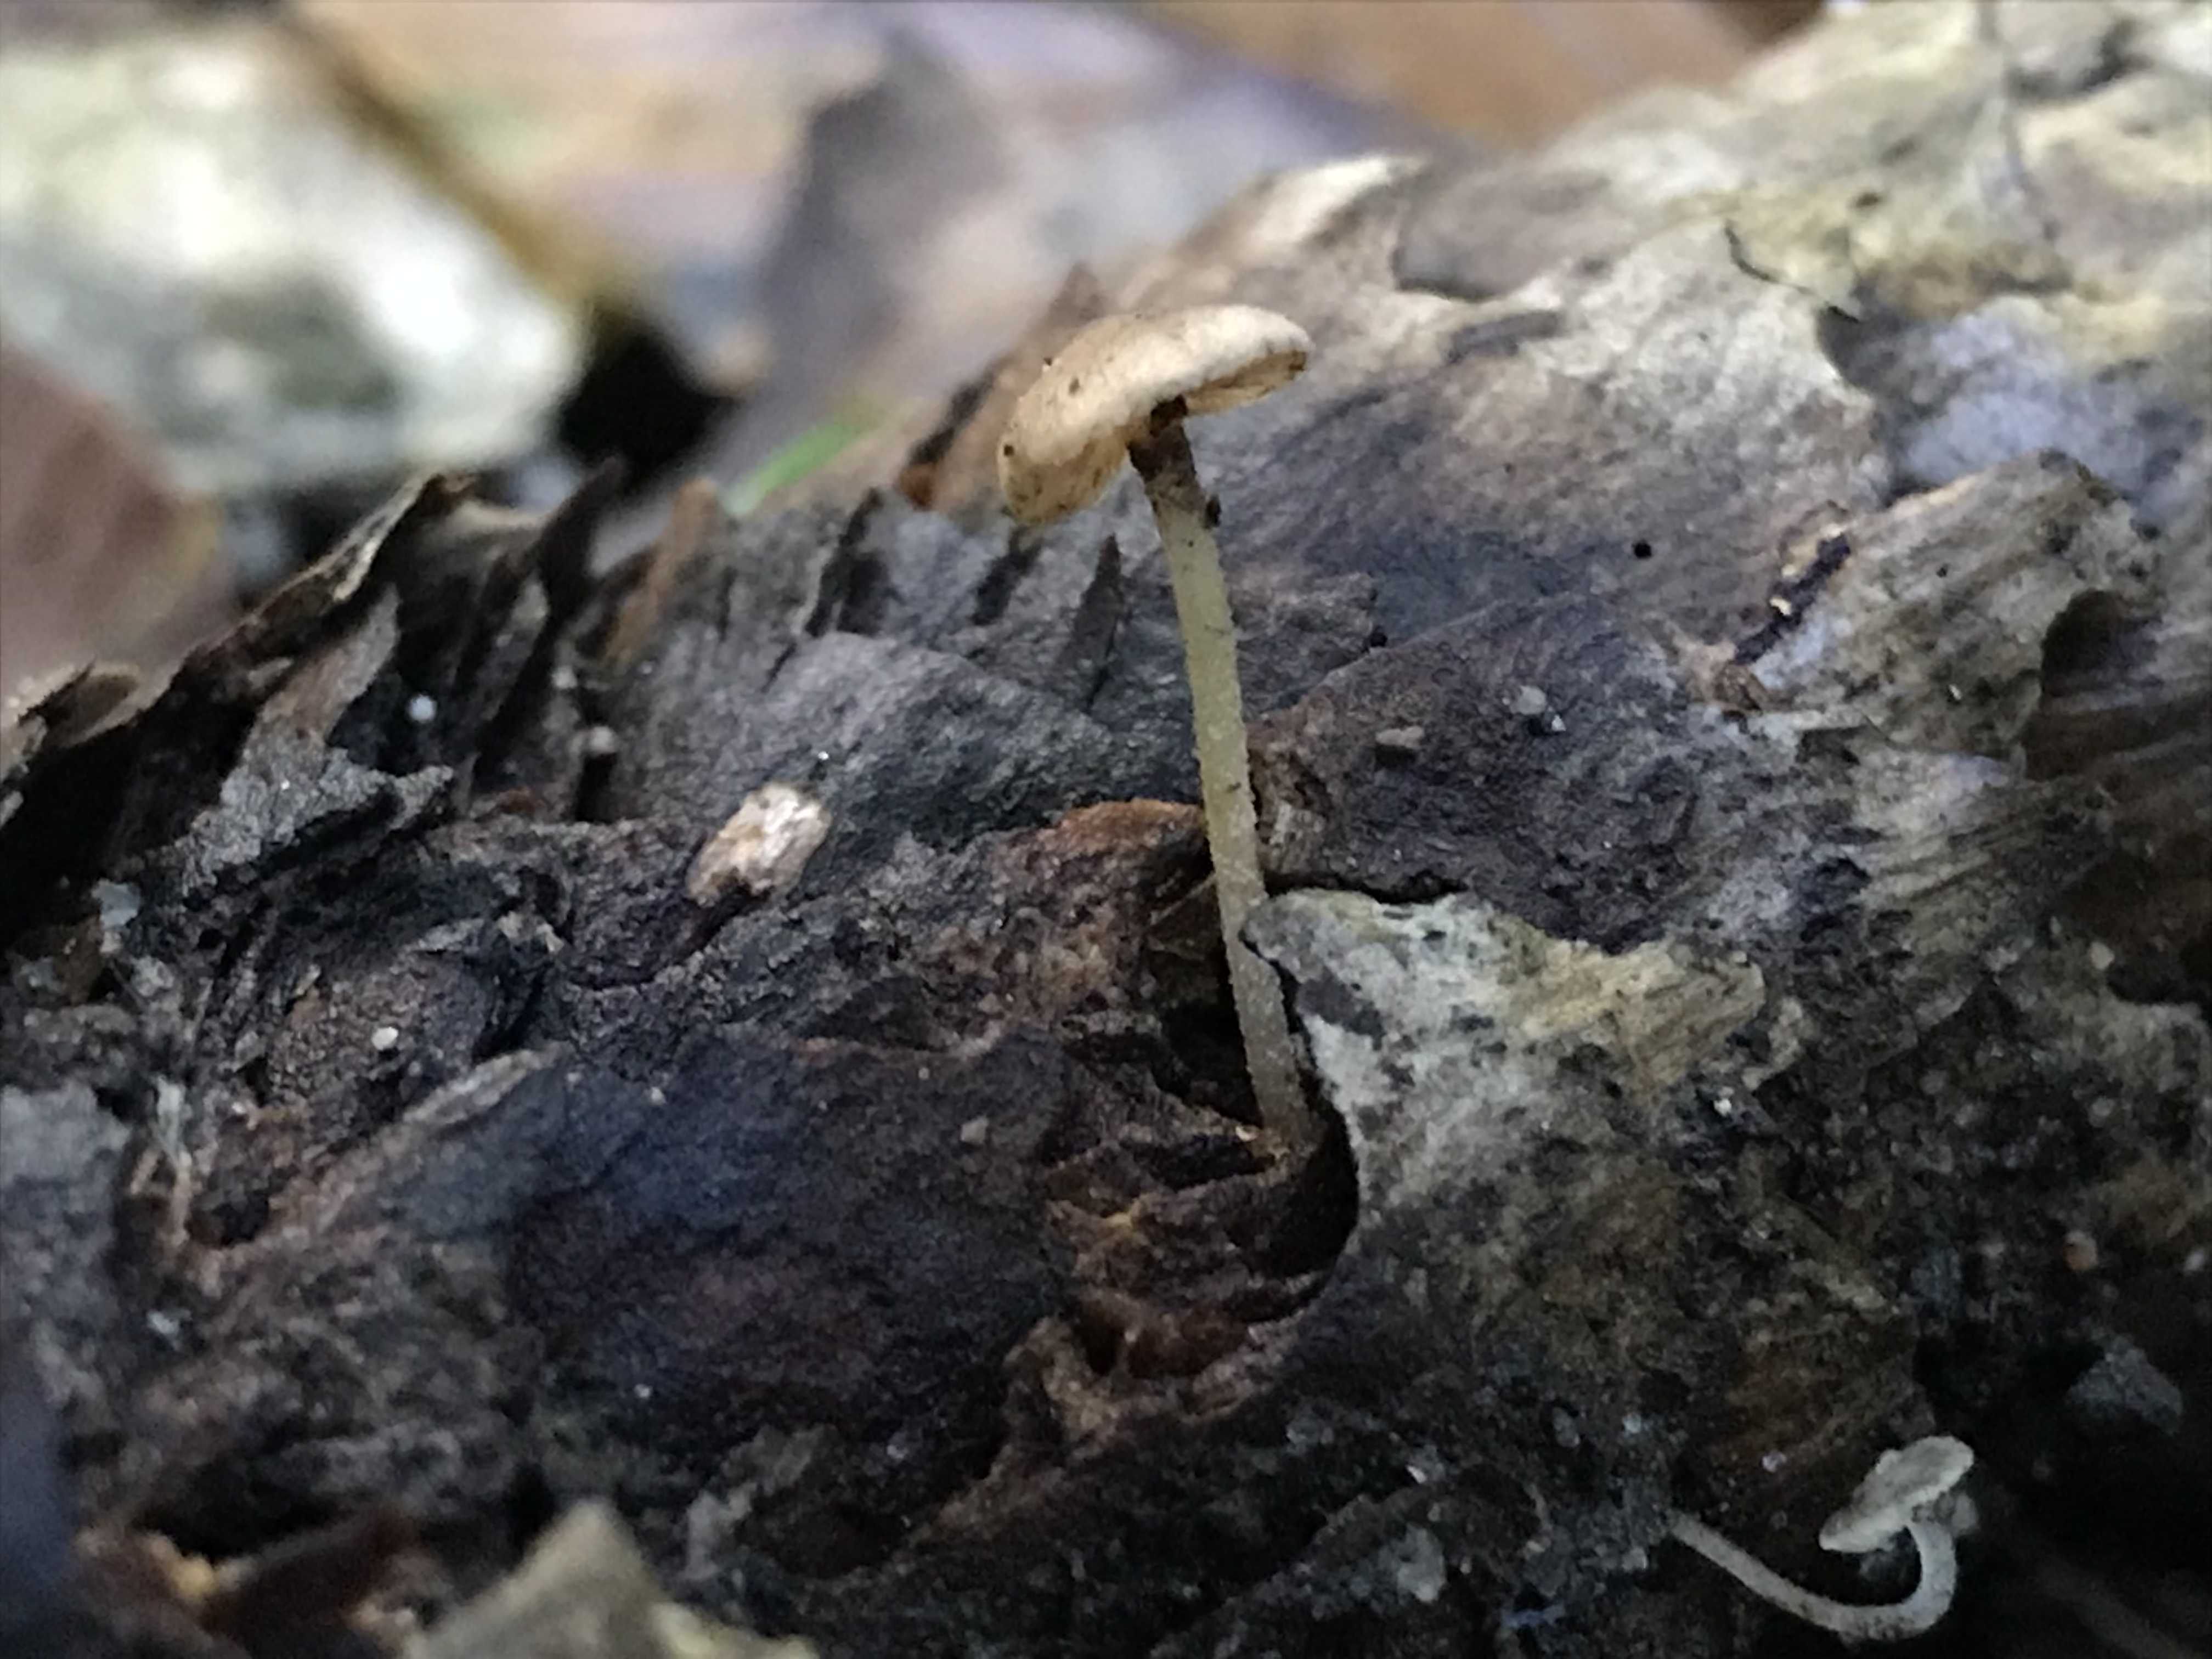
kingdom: Fungi
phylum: Basidiomycota
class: Agaricomycetes
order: Agaricales
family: Physalacriaceae
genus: Strobilurus
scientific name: Strobilurus esculentus
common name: gran-koglehat
